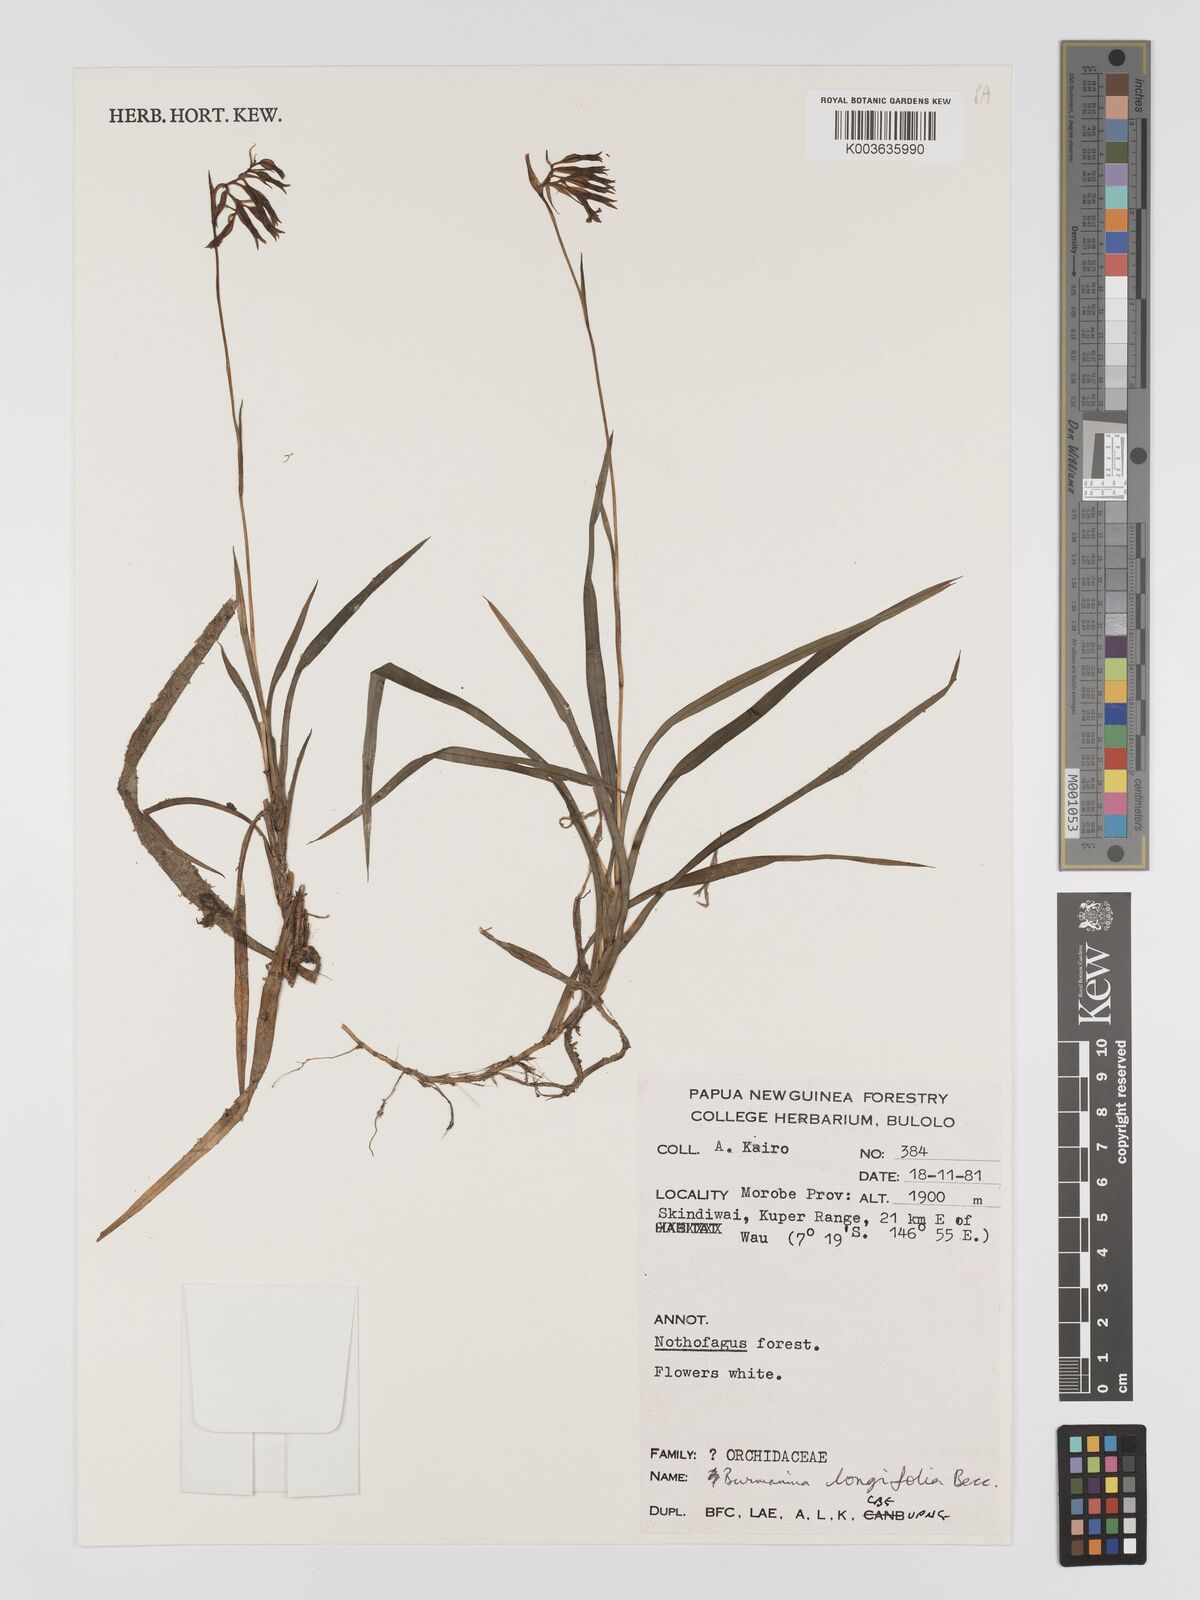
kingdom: Plantae
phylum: Tracheophyta
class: Liliopsida
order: Dioscoreales
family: Burmanniaceae
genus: Burmannia
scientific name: Burmannia longifolia
